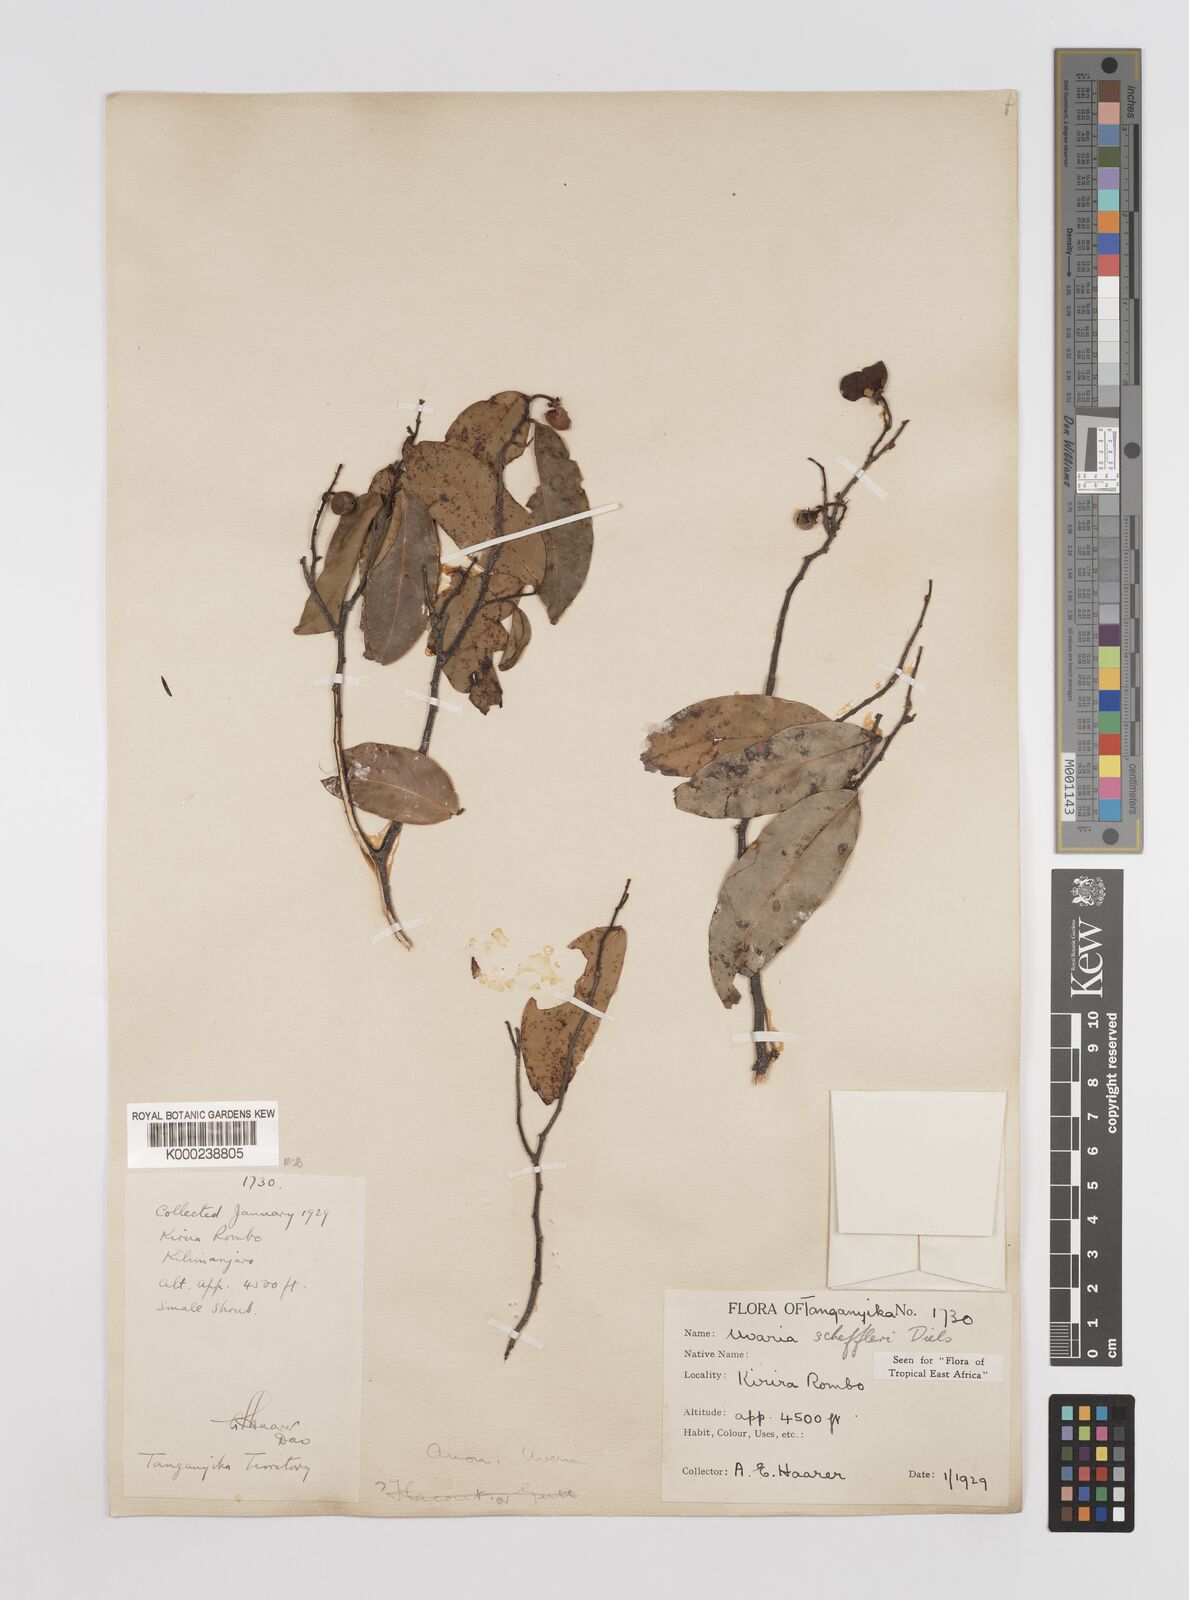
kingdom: Plantae
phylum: Tracheophyta
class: Magnoliopsida
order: Magnoliales
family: Annonaceae
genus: Uvaria
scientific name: Uvaria scheffleri
